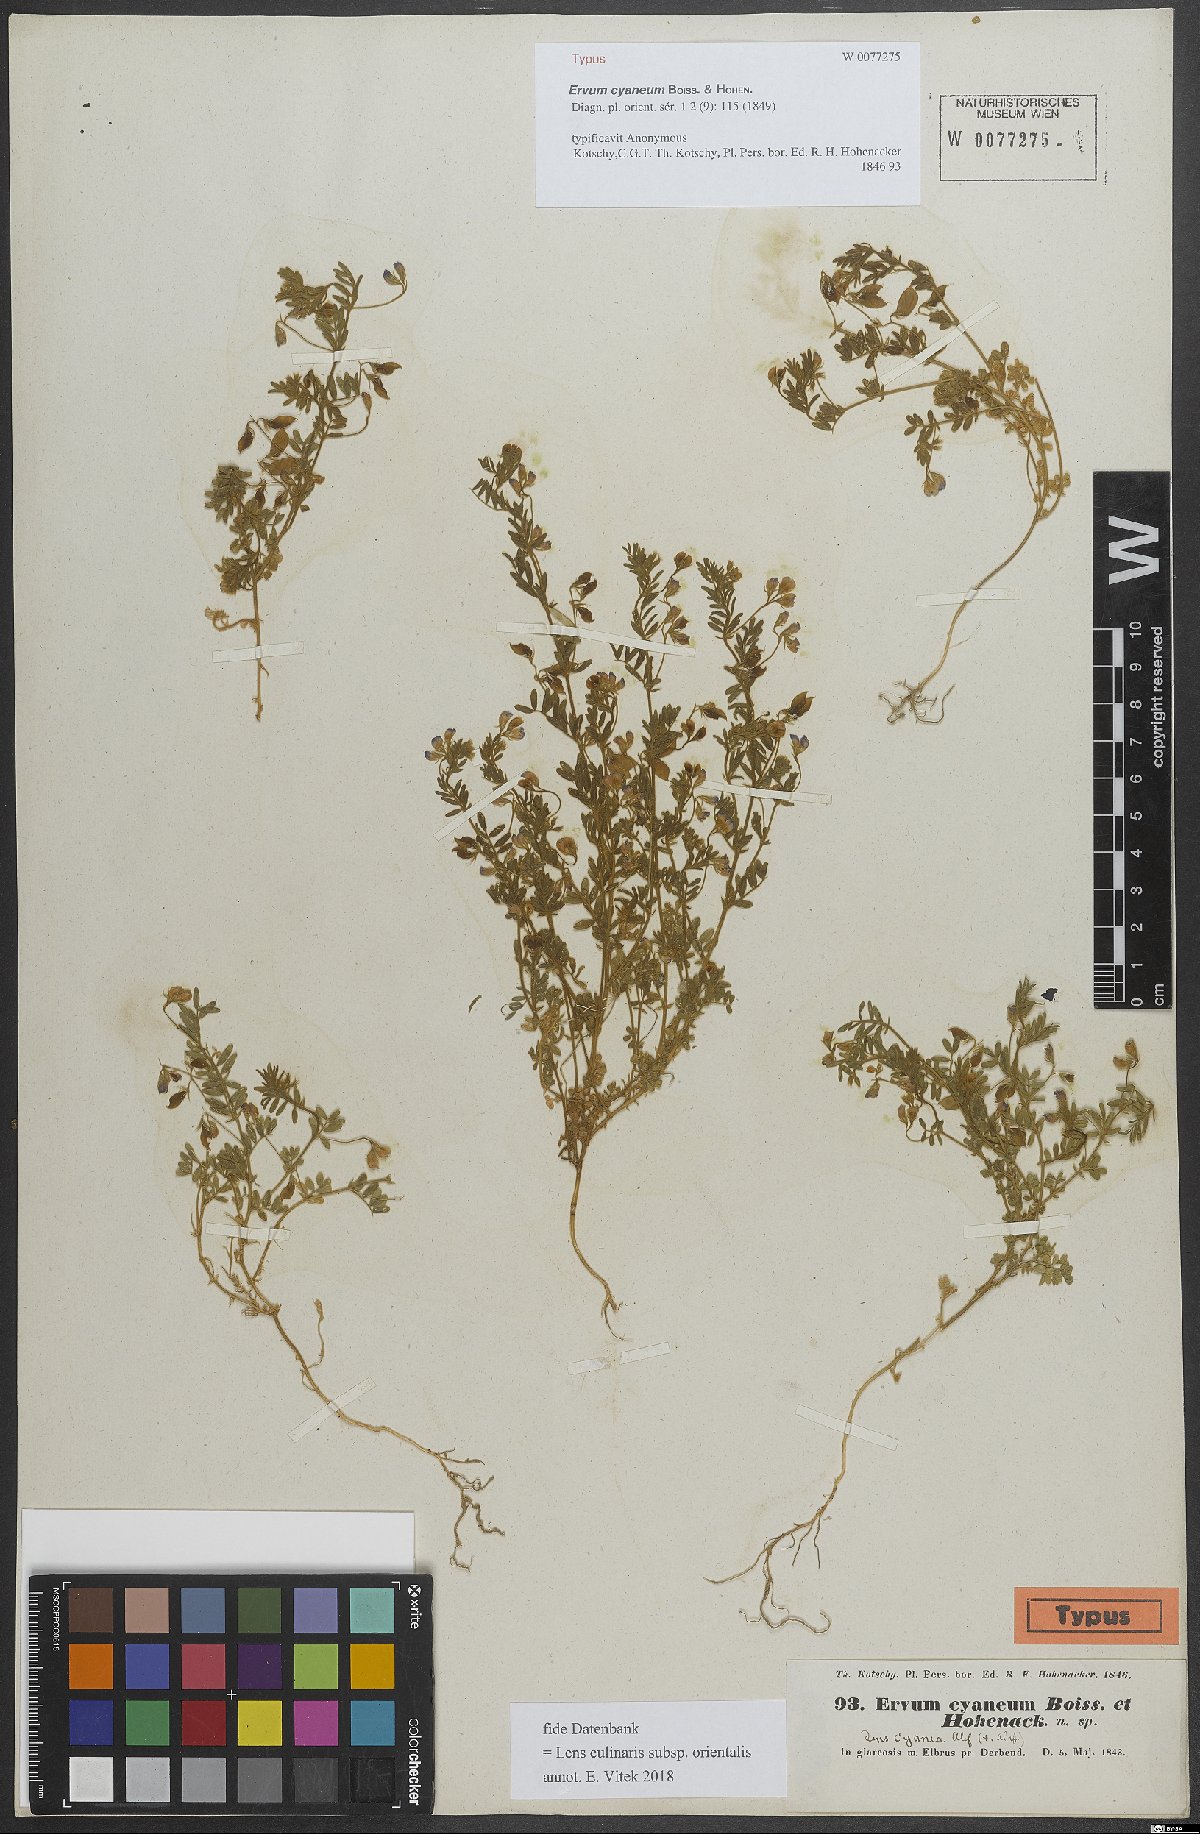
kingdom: Plantae
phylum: Tracheophyta
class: Magnoliopsida
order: Fabales
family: Fabaceae
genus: Vicia
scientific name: Vicia orientalis
